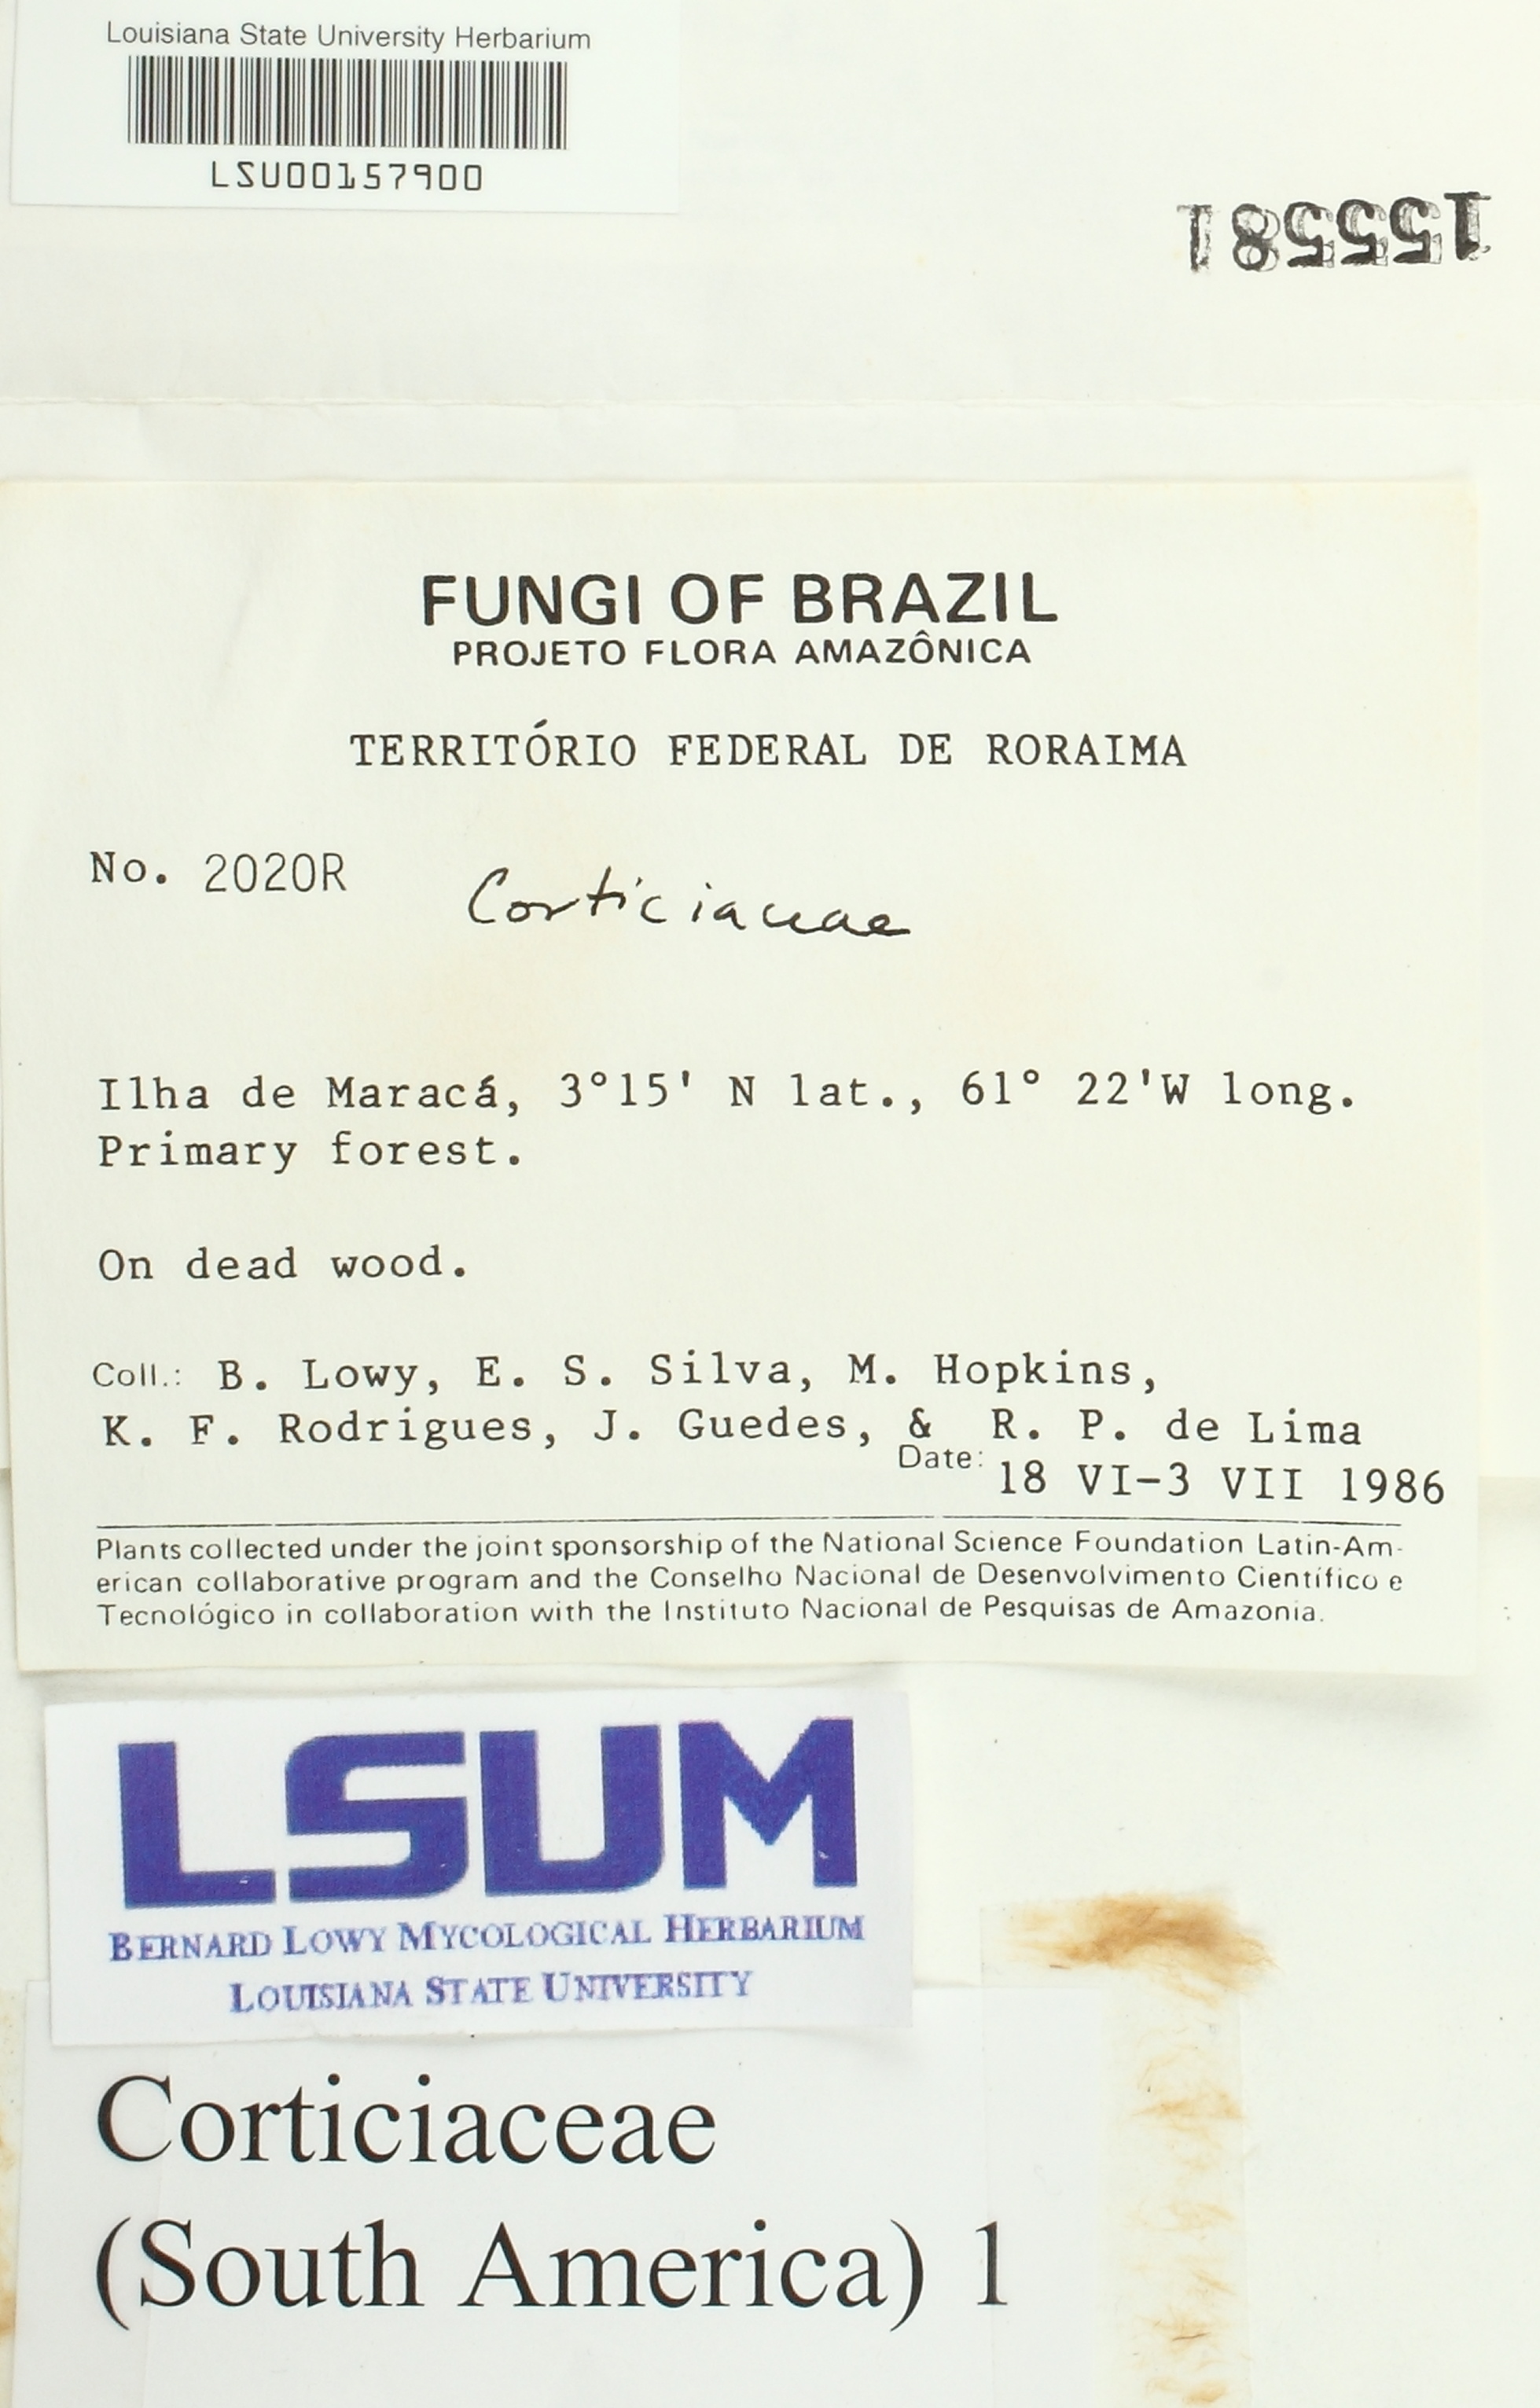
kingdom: Fungi
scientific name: Fungi
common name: Fungi
